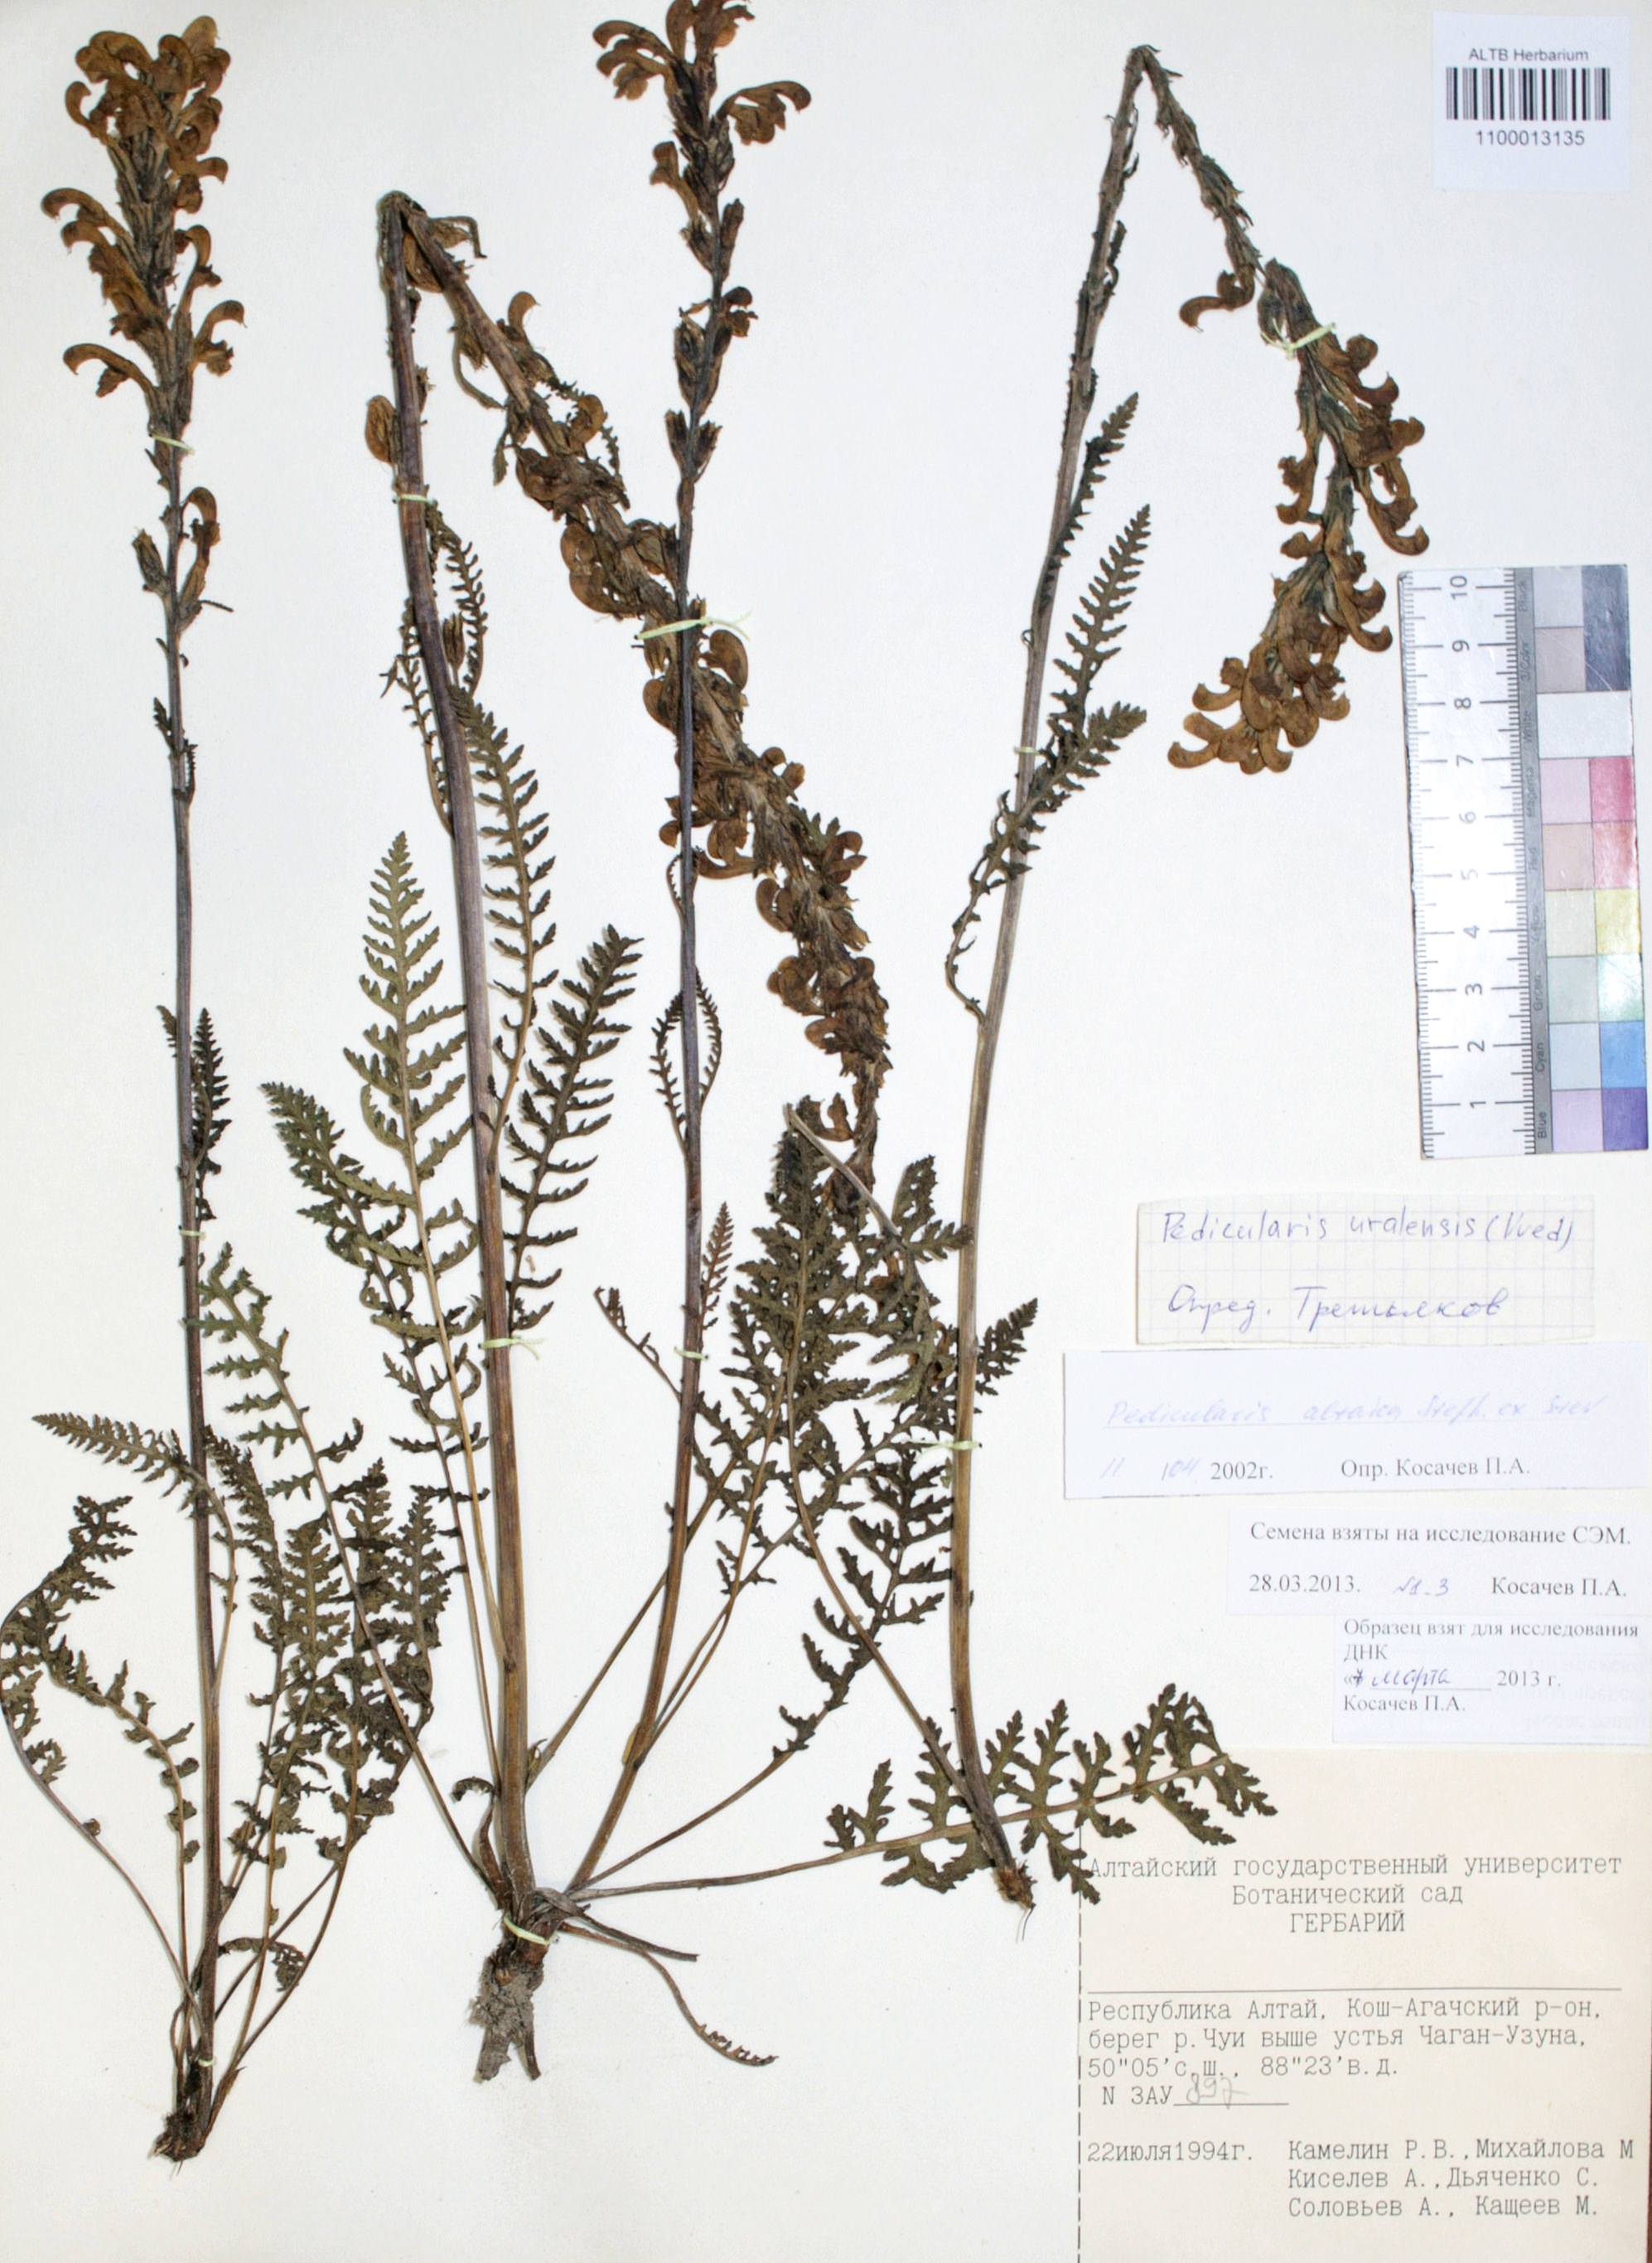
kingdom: Plantae
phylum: Tracheophyta
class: Magnoliopsida
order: Lamiales
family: Orobanchaceae
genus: Pedicularis
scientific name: Pedicularis altaica
